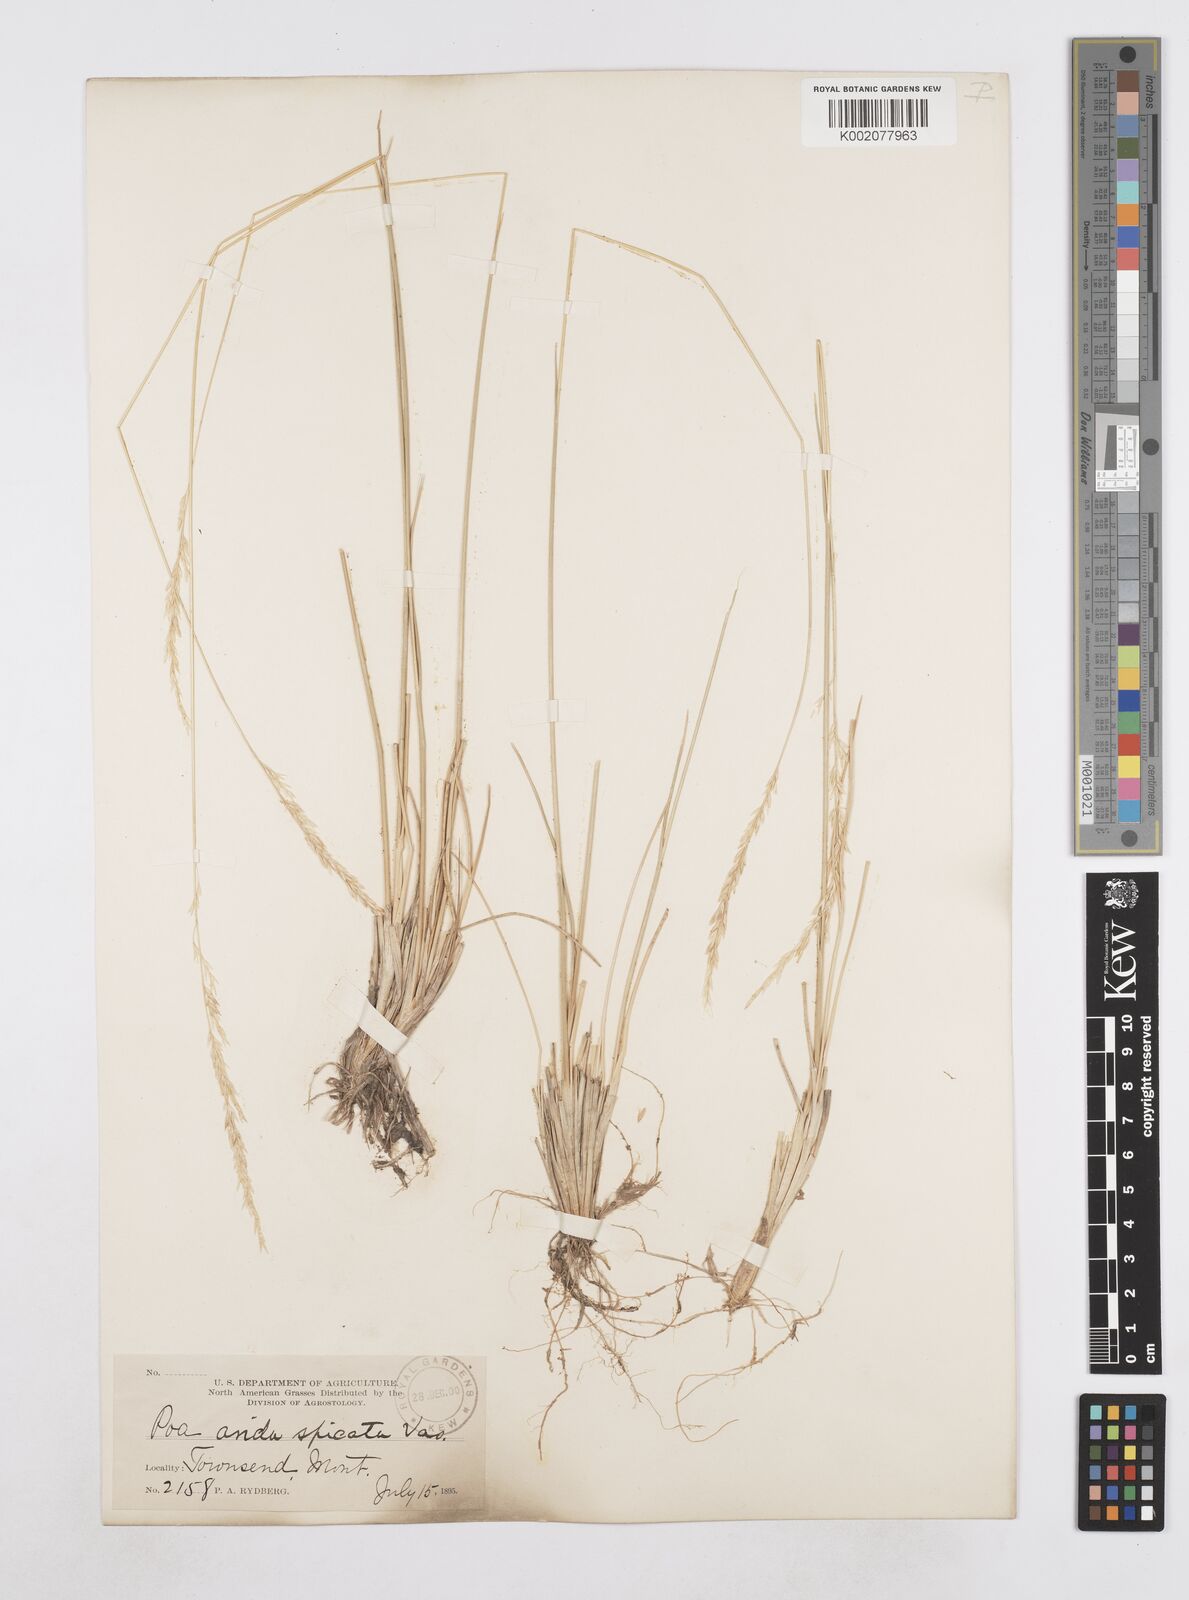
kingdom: Plantae
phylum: Tracheophyta
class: Liliopsida
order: Poales
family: Poaceae
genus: Poa
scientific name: Poa arida
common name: Plains bluegrass
